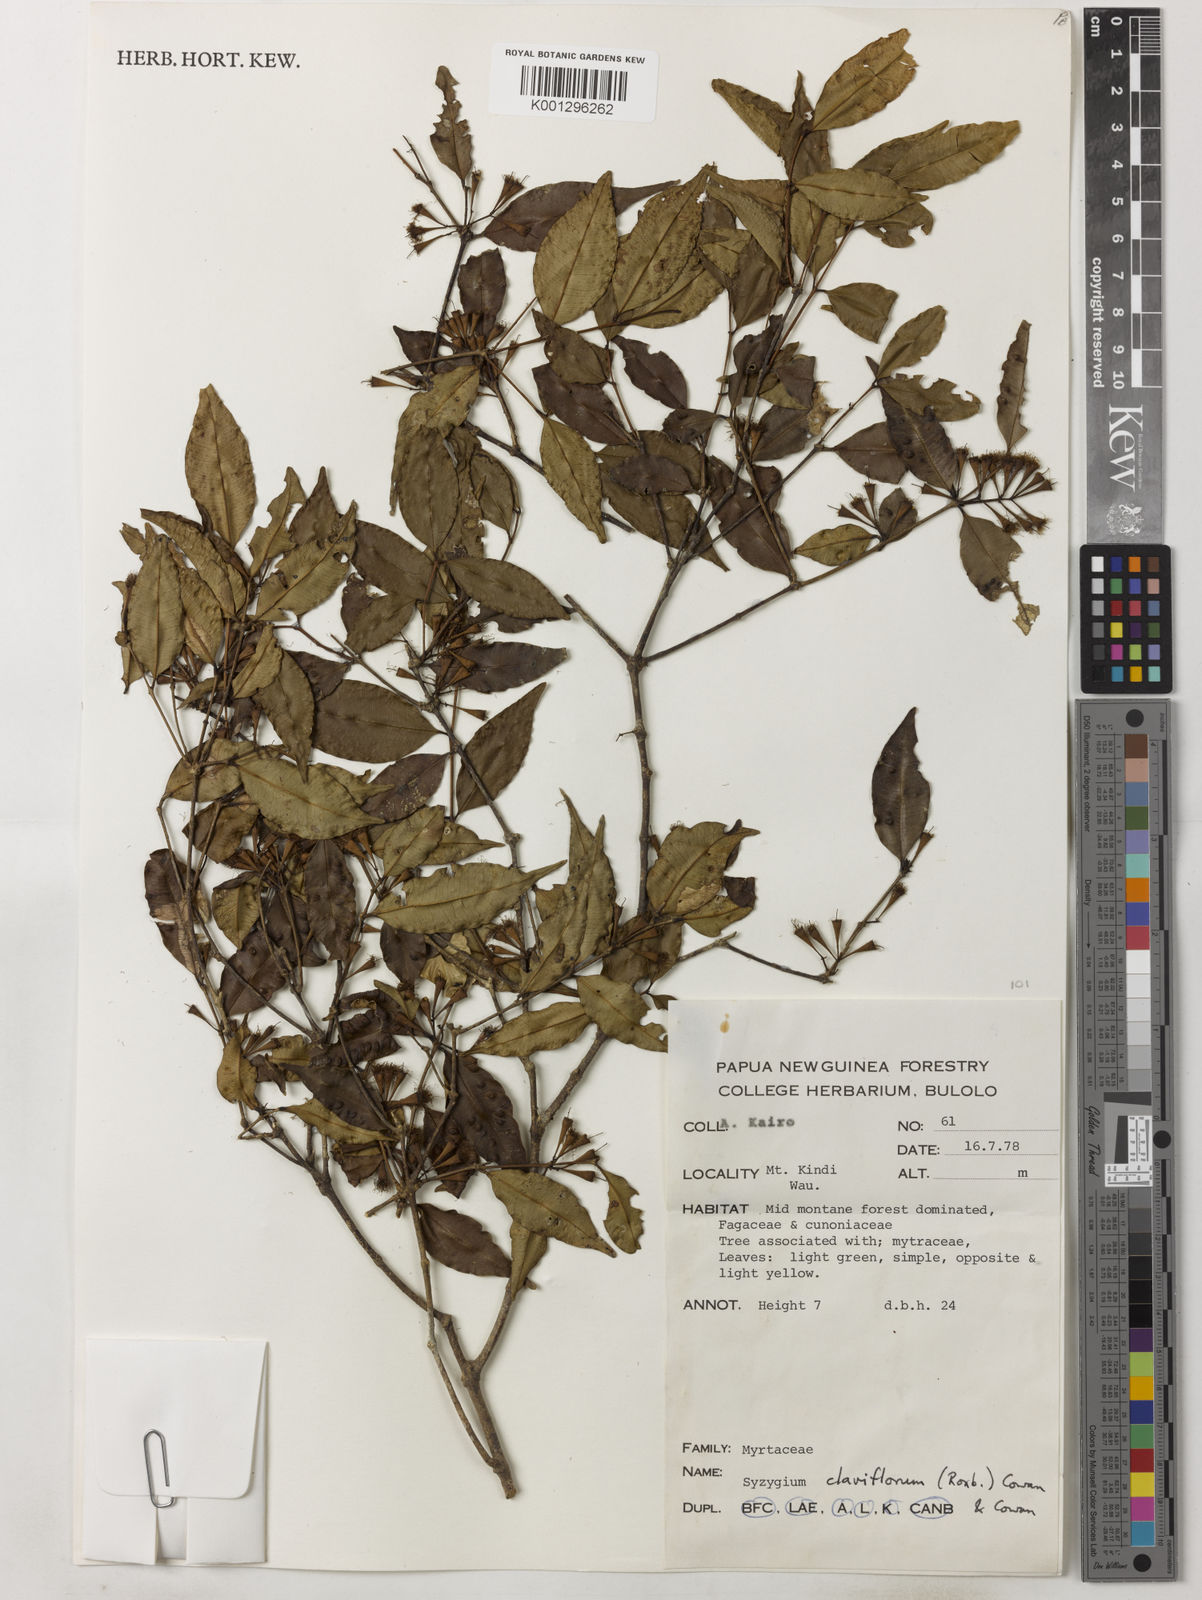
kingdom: Plantae
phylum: Tracheophyta
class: Magnoliopsida
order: Myrtales
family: Myrtaceae
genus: Syzygium
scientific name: Syzygium leptopodium
